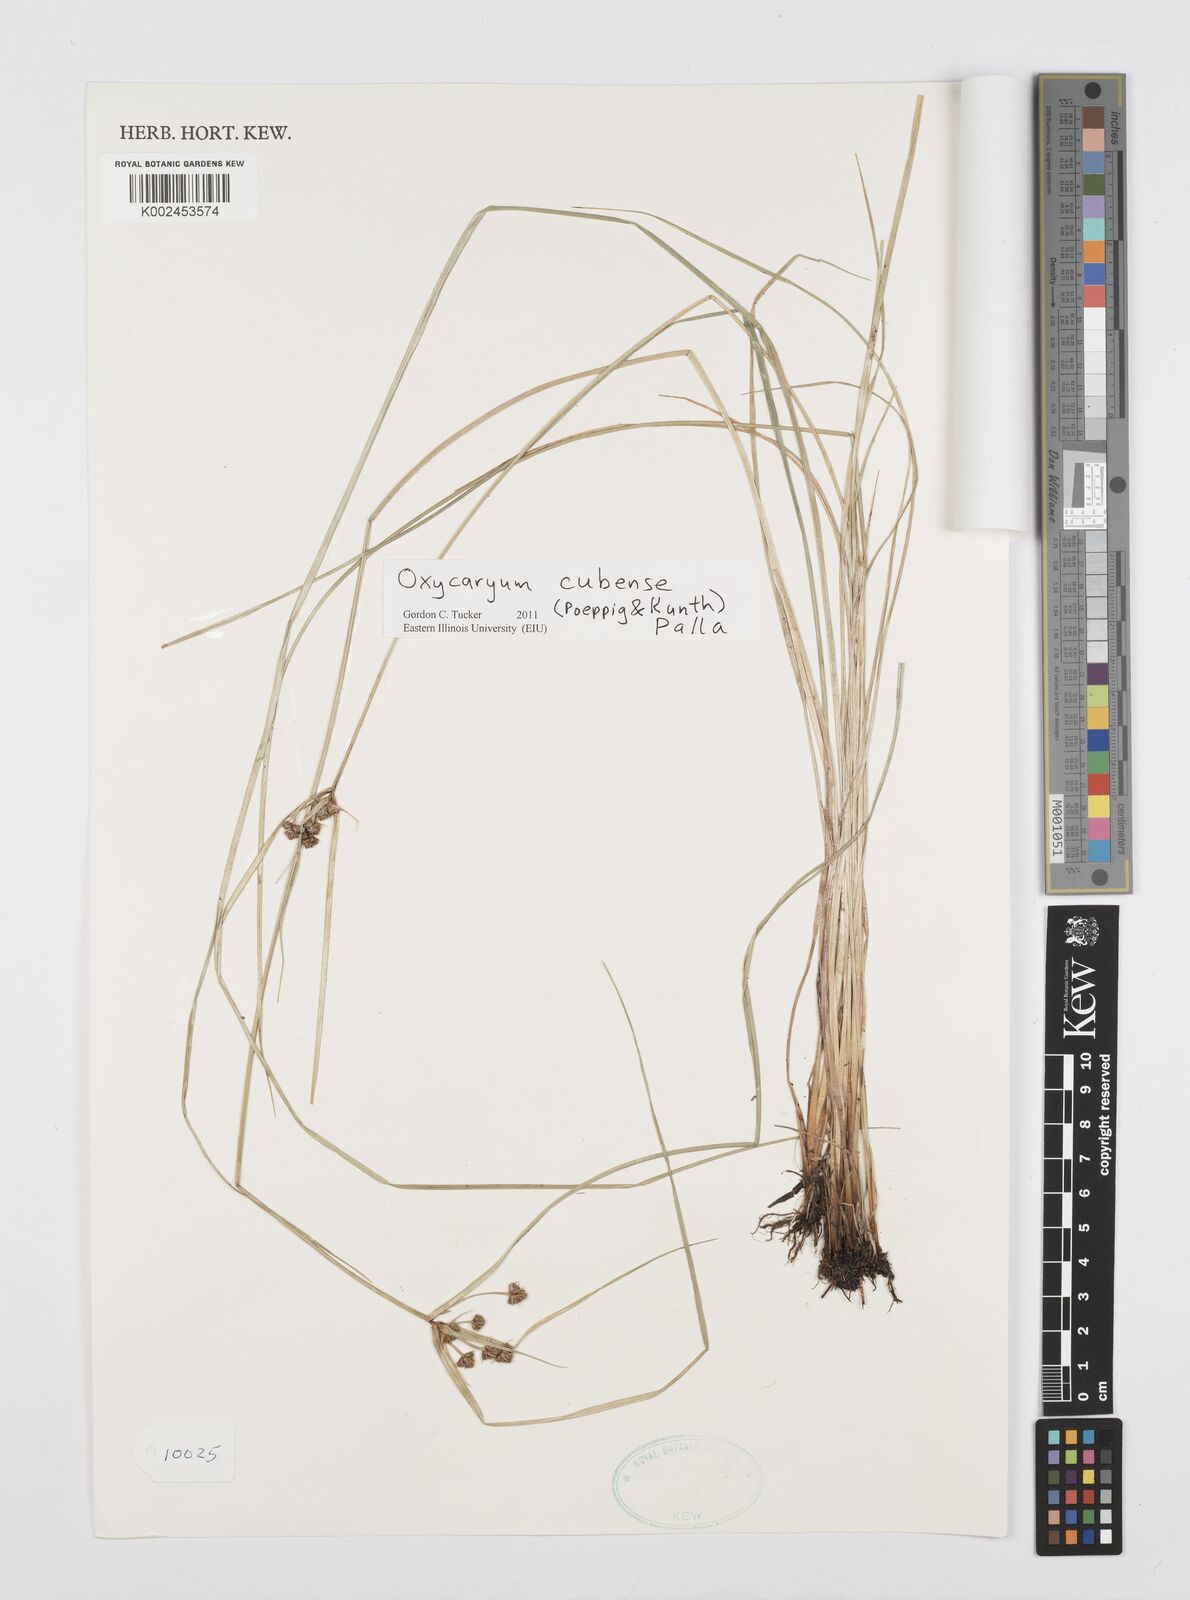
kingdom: Plantae
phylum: Tracheophyta
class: Liliopsida
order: Poales
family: Cyperaceae
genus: Cyperus
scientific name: Cyperus elegans
